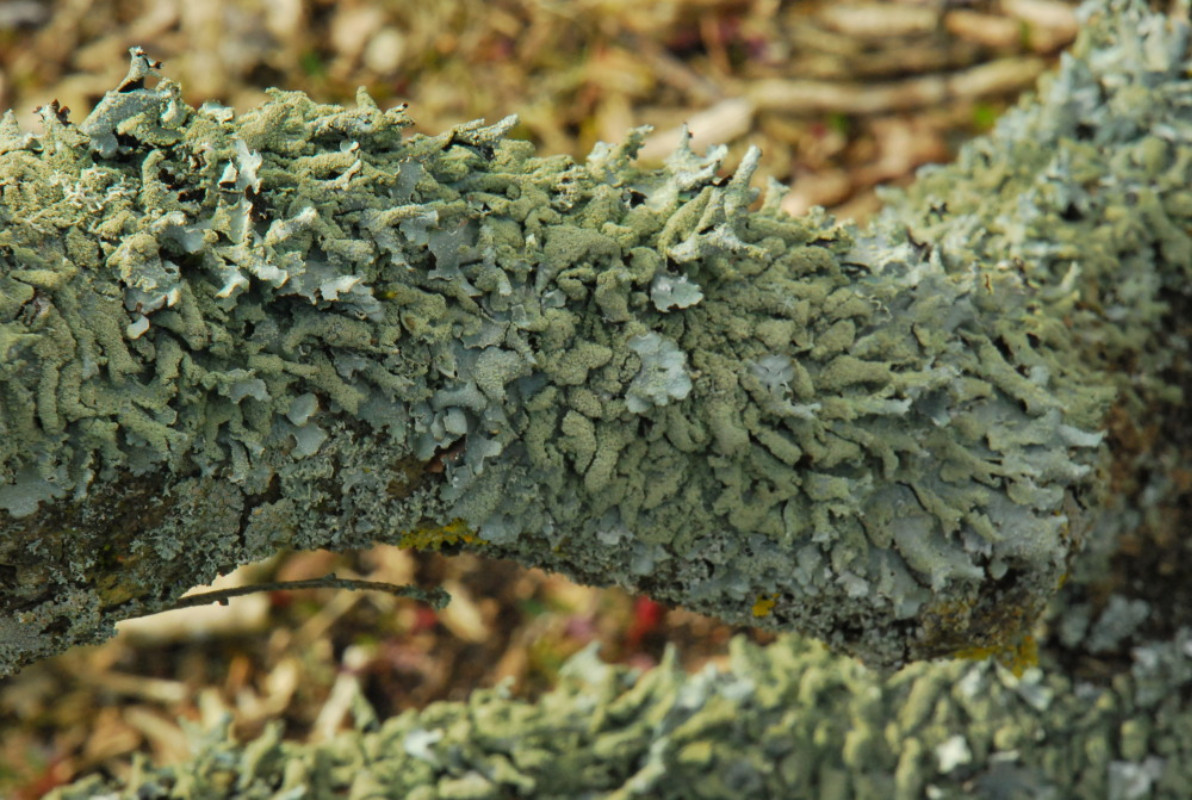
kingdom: Fungi
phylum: Ascomycota
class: Lecanoromycetes
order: Lecanorales
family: Parmeliaceae
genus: Parmelia
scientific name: Parmelia submontana
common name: langlobet skållav
